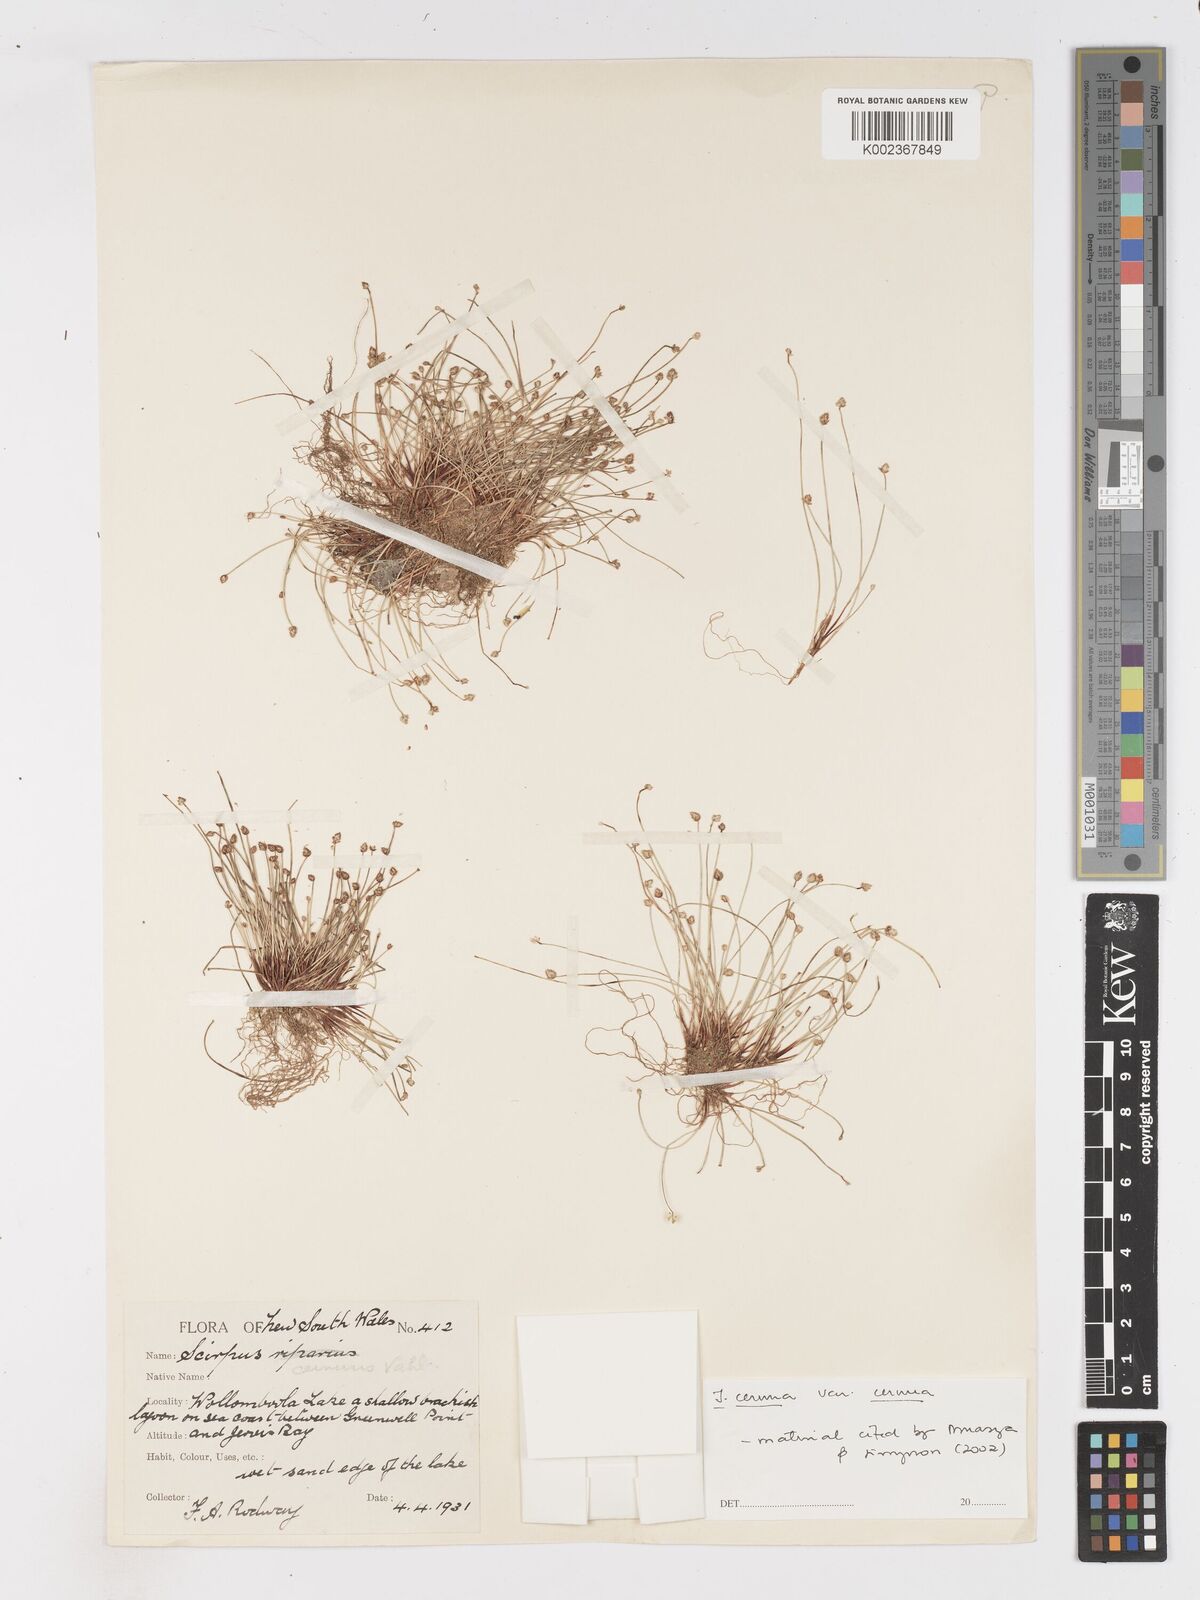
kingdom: Plantae
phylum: Tracheophyta
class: Liliopsida
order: Poales
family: Cyperaceae
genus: Isolepis
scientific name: Isolepis cernua
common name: Slender club-rush
